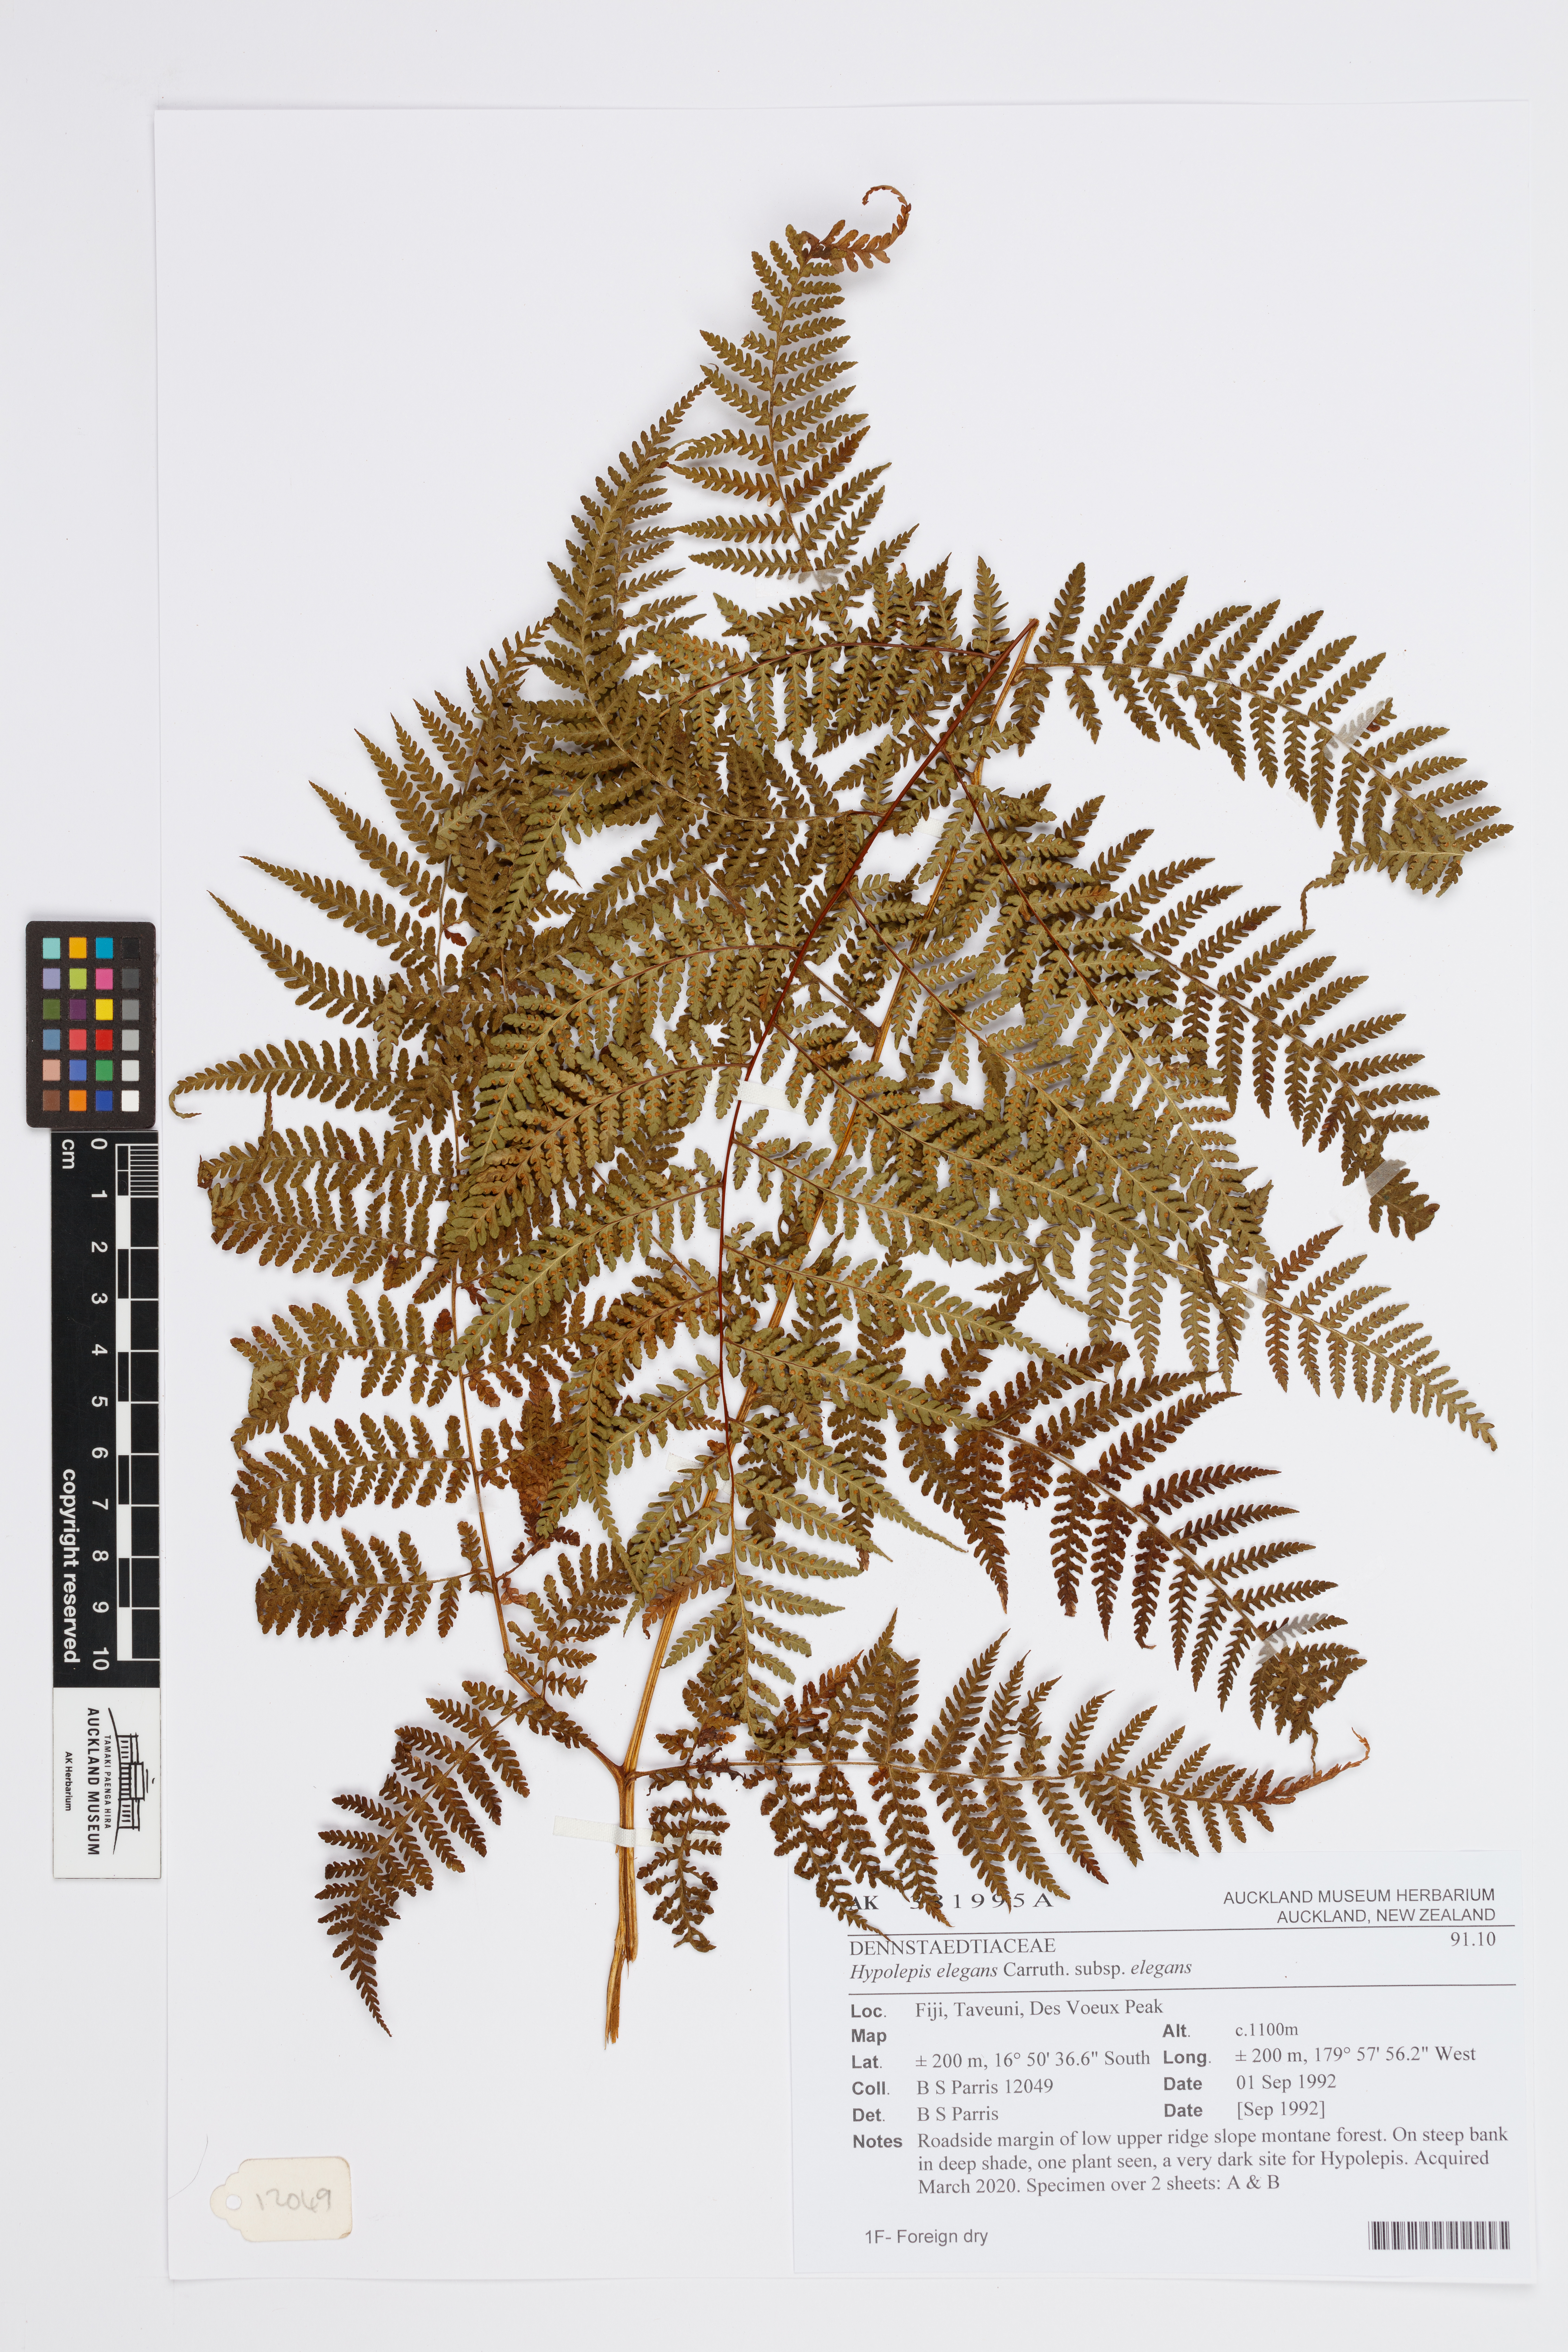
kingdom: Plantae
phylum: Tracheophyta
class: Polypodiopsida
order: Polypodiales
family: Dennstaedtiaceae
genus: Hypolepis
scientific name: Hypolepis elegans
